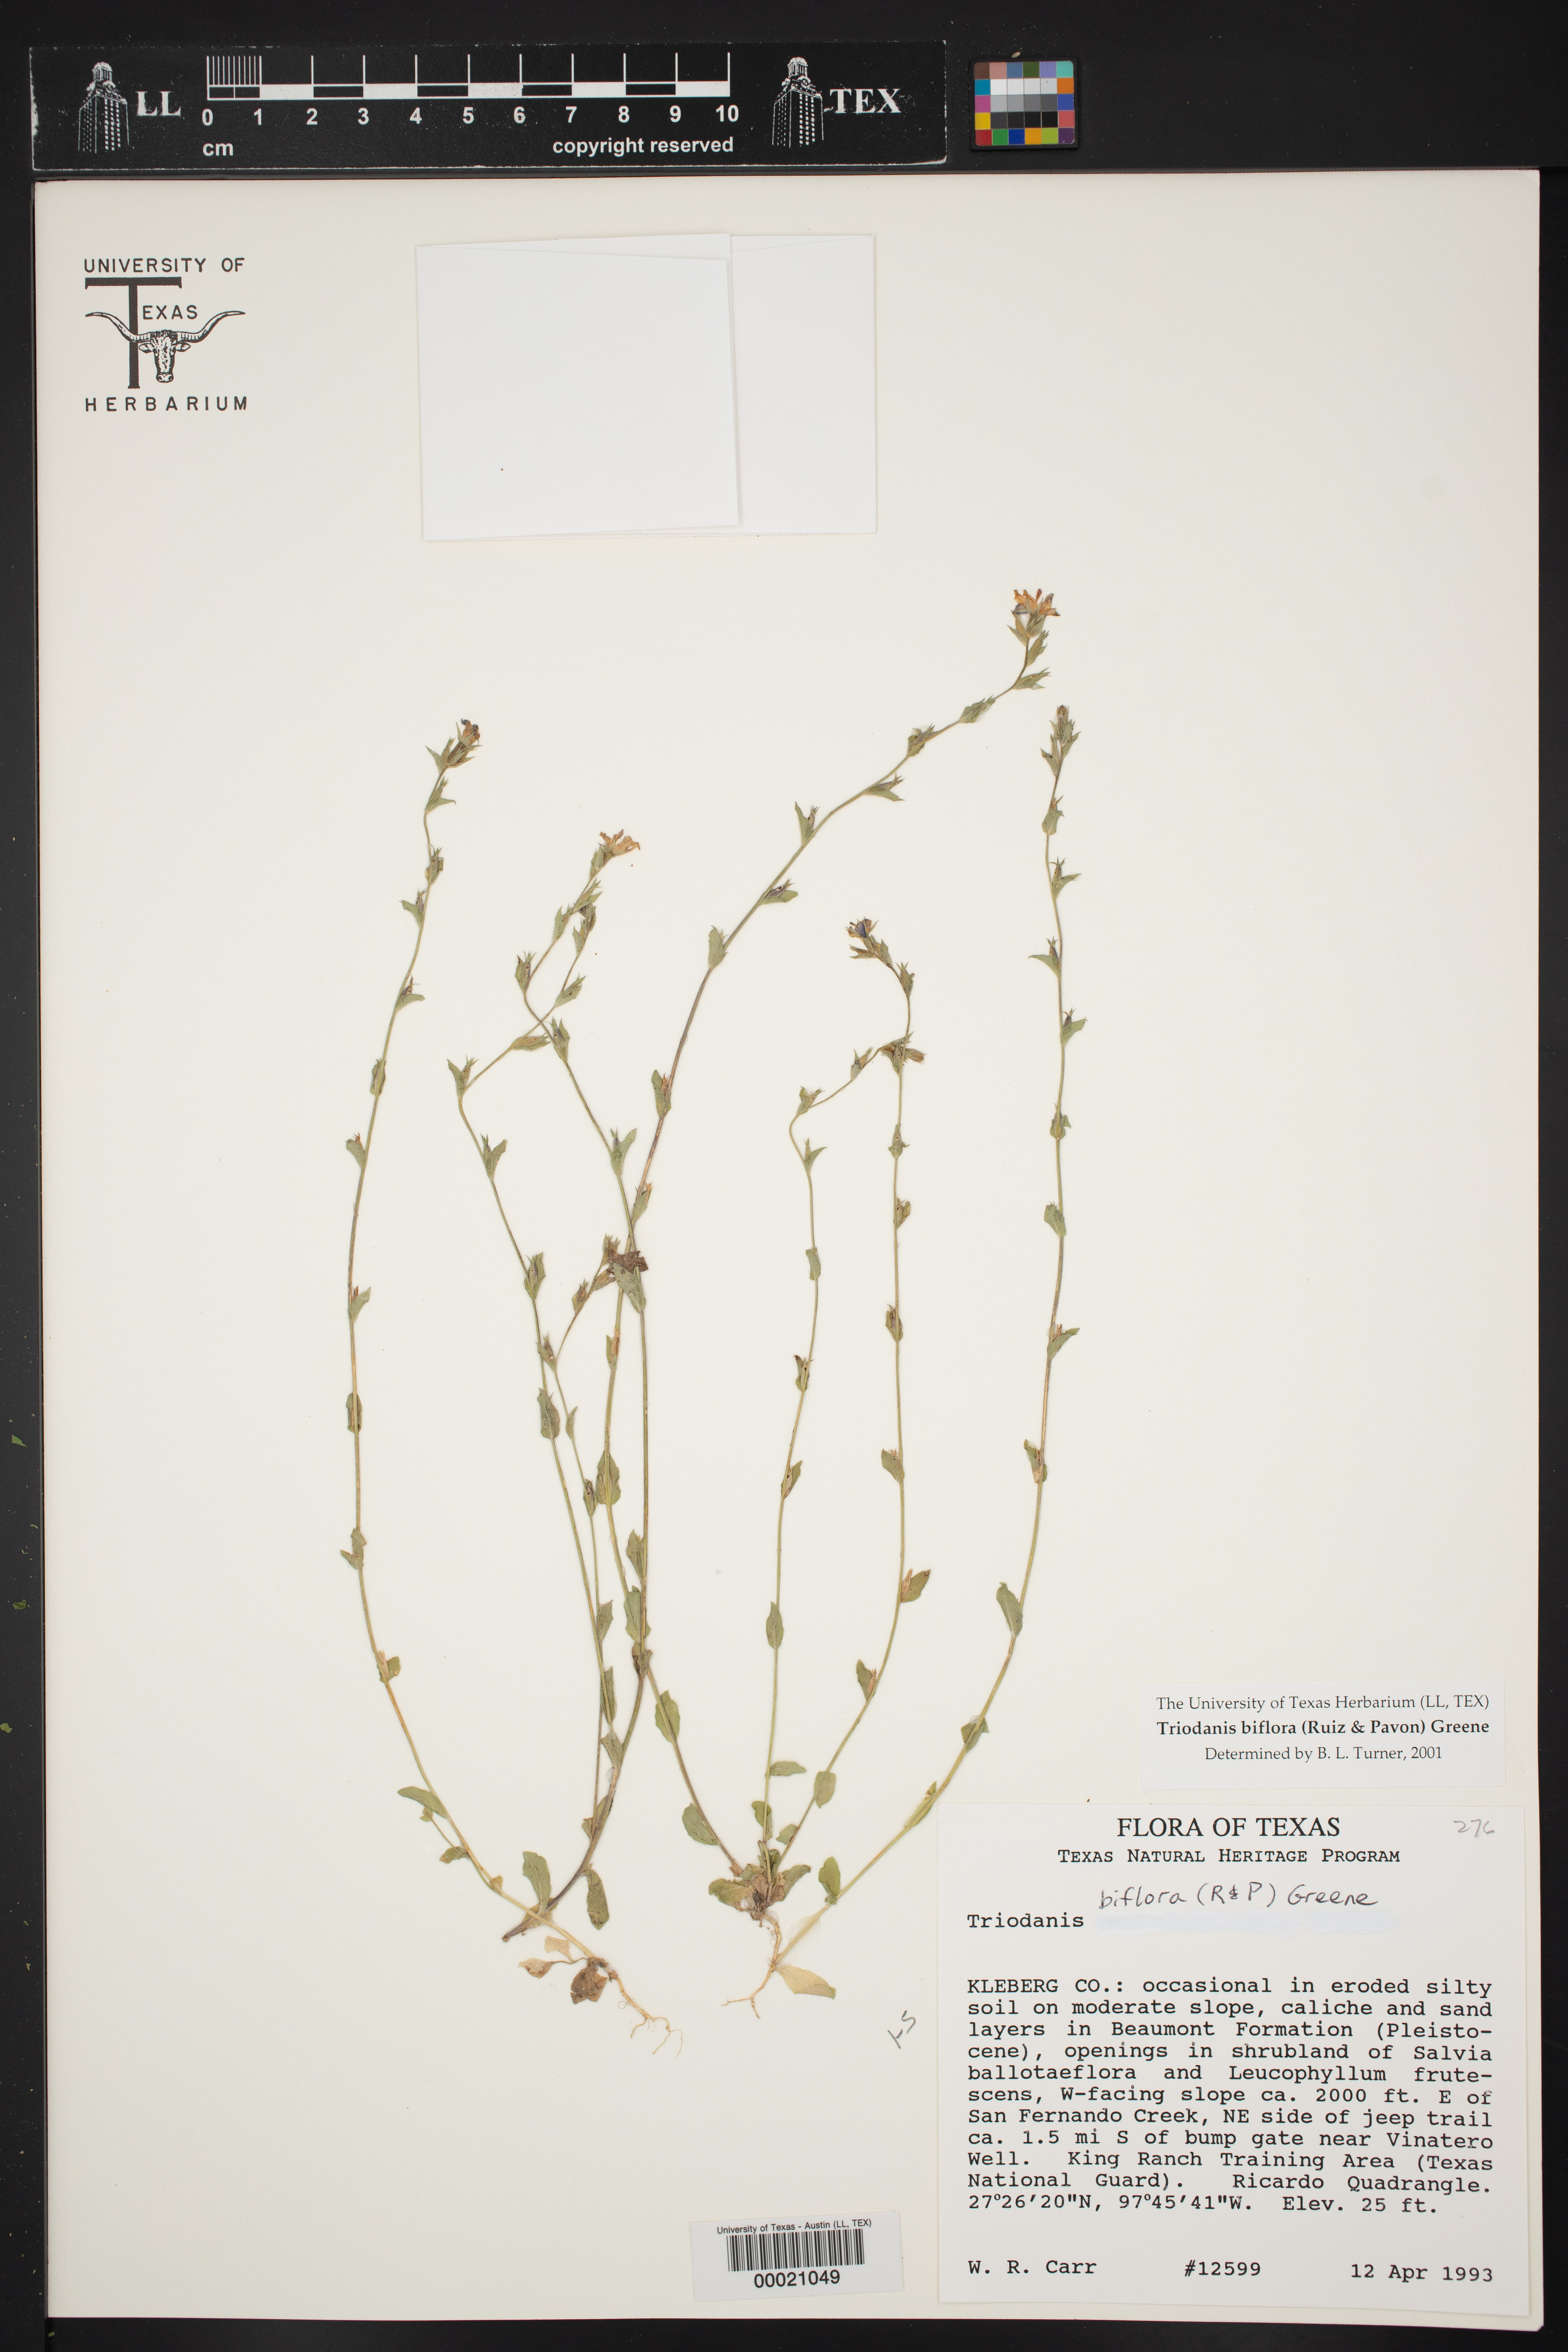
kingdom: Plantae
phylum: Tracheophyta
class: Magnoliopsida
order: Asterales
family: Campanulaceae
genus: Triodanis
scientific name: Triodanis biflora
